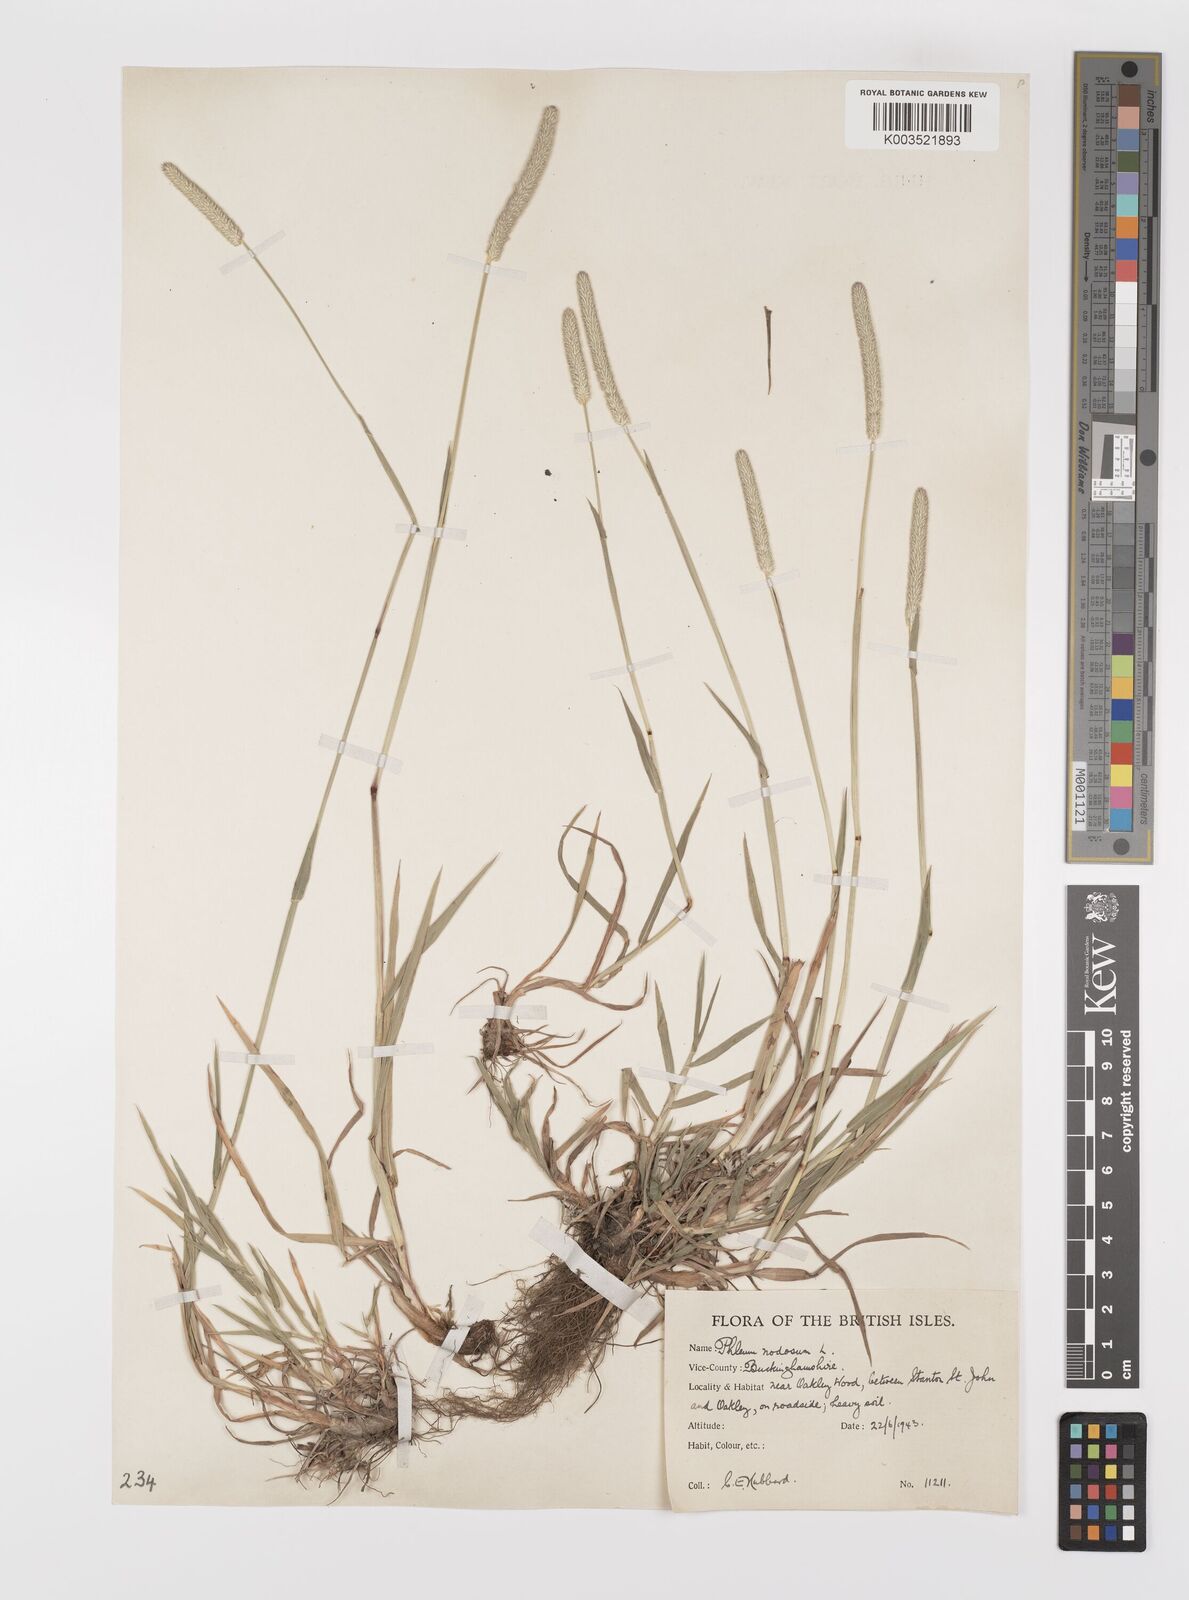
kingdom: Plantae
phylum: Tracheophyta
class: Liliopsida
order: Poales
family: Poaceae
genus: Phleum
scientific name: Phleum bertolonii
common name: Smaller cat's-tail
